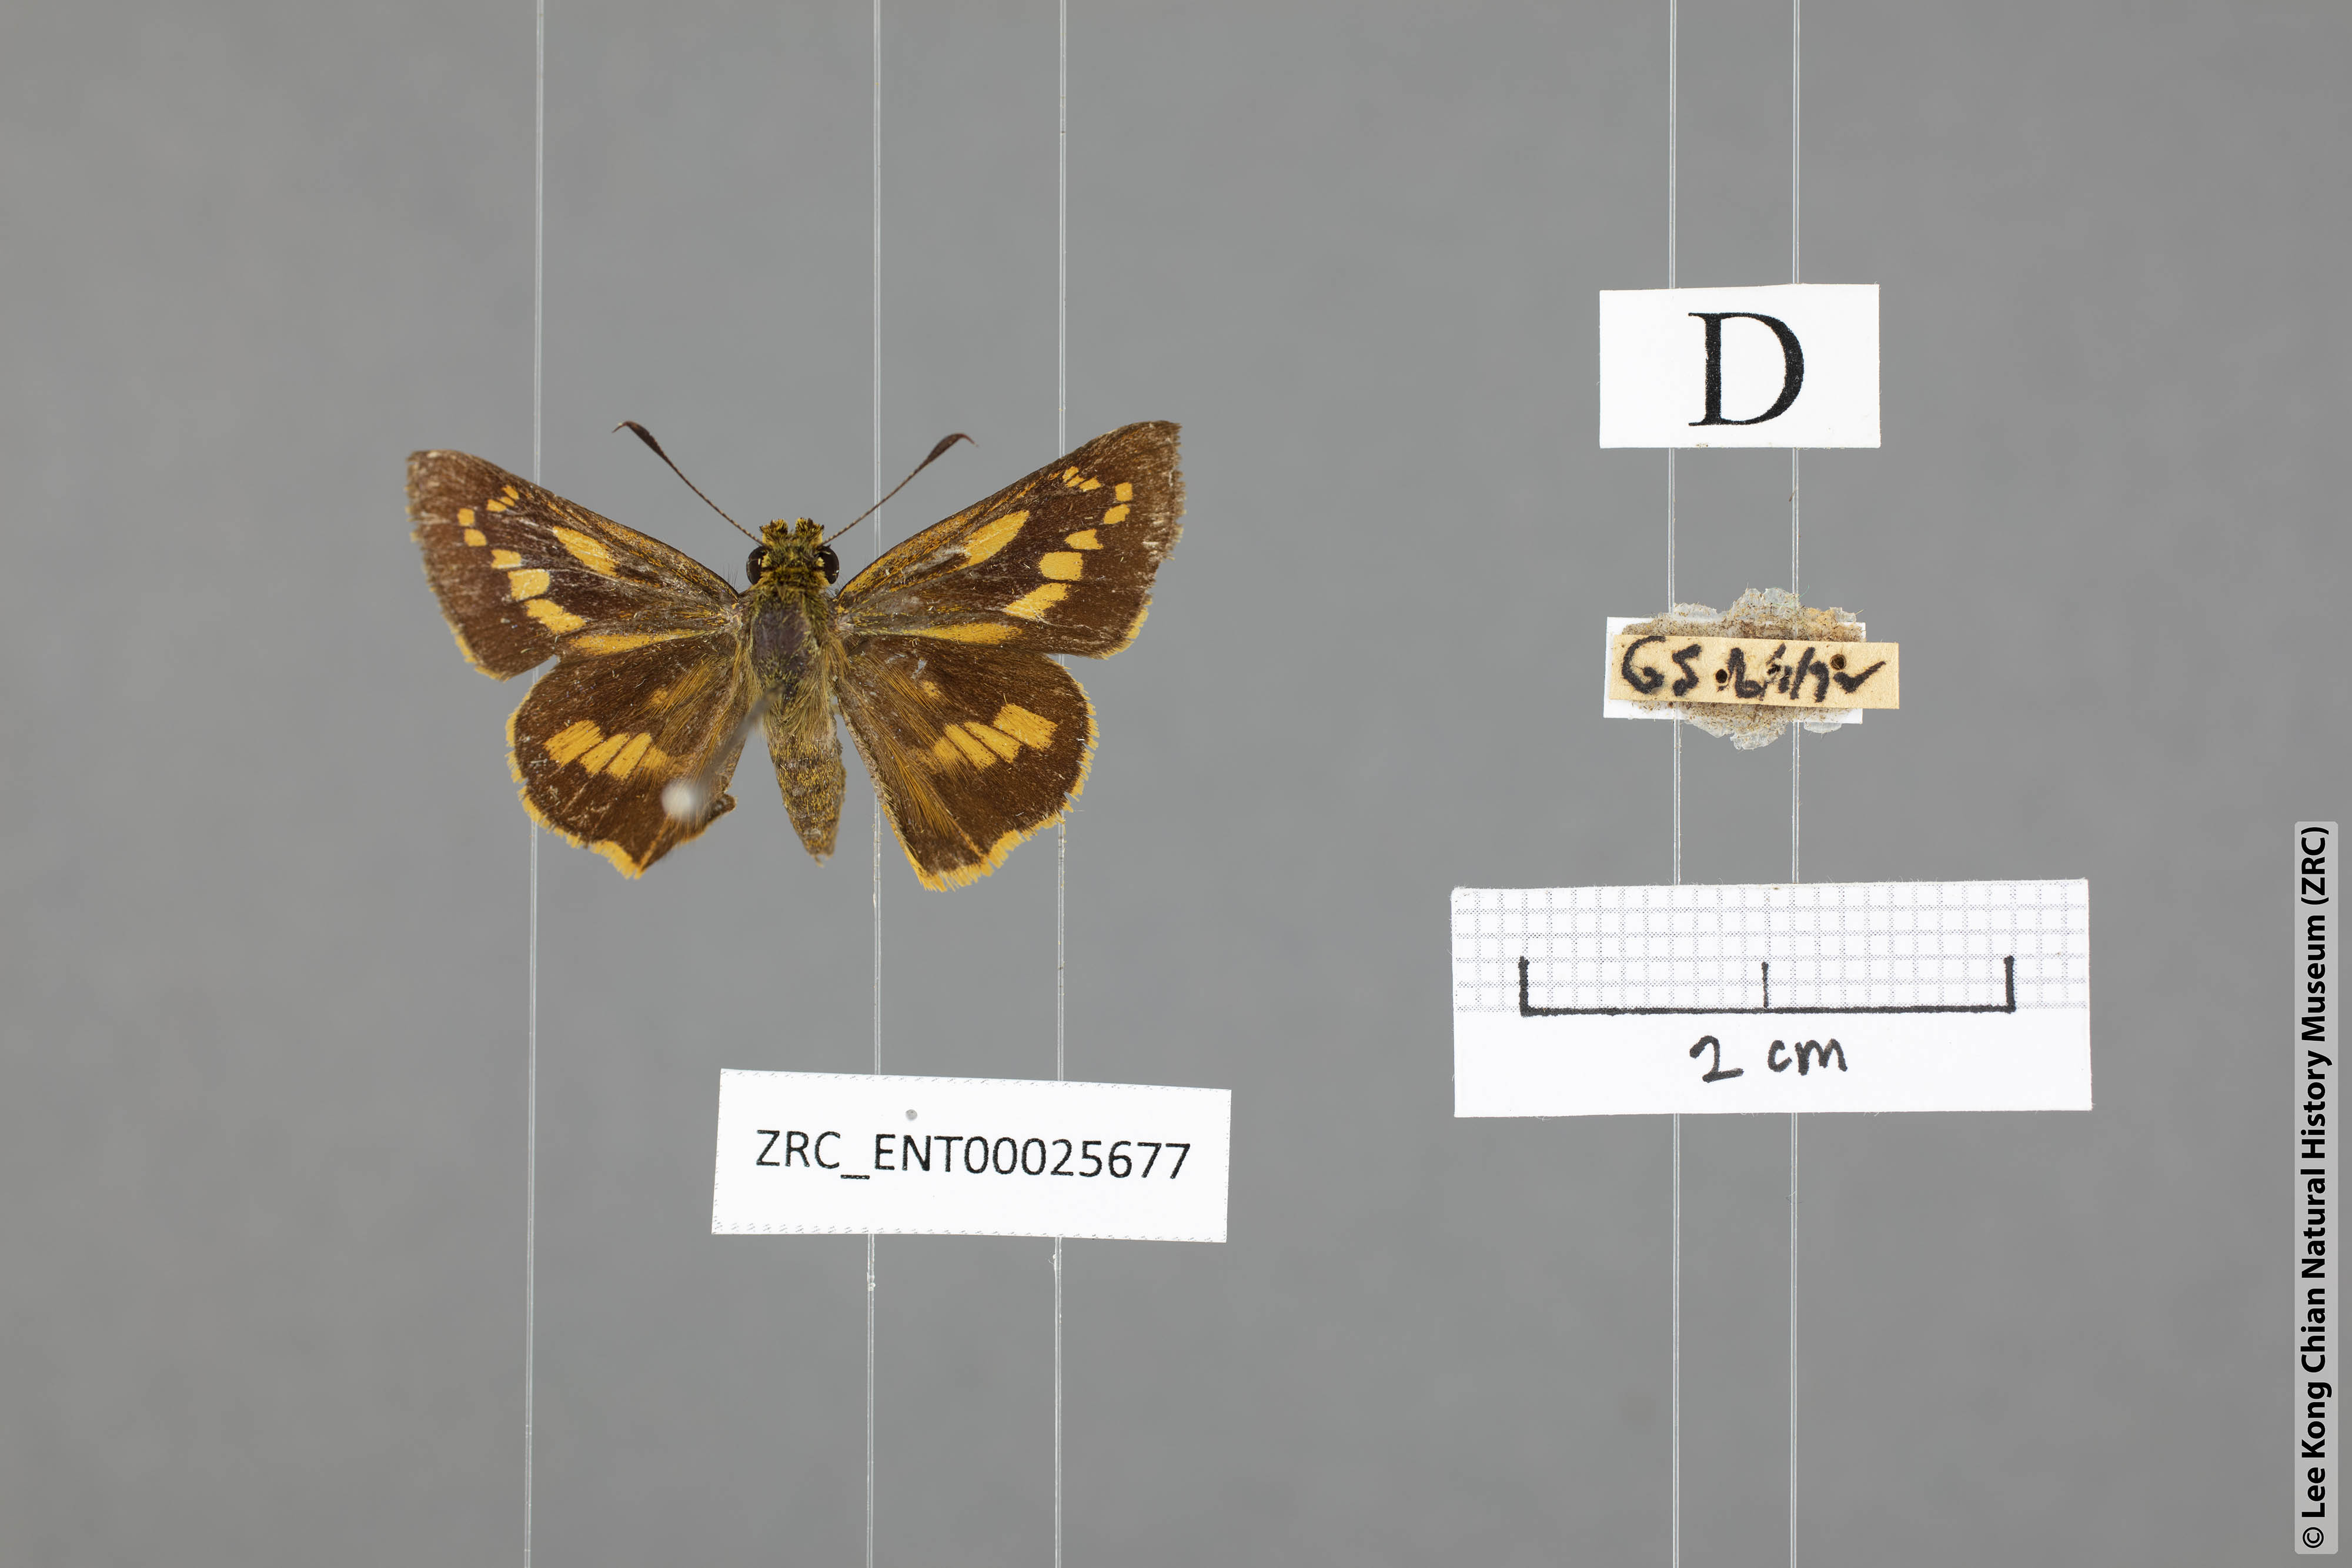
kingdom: Animalia
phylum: Arthropoda
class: Insecta
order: Lepidoptera
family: Hesperiidae
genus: Telicota
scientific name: Telicota hilda
